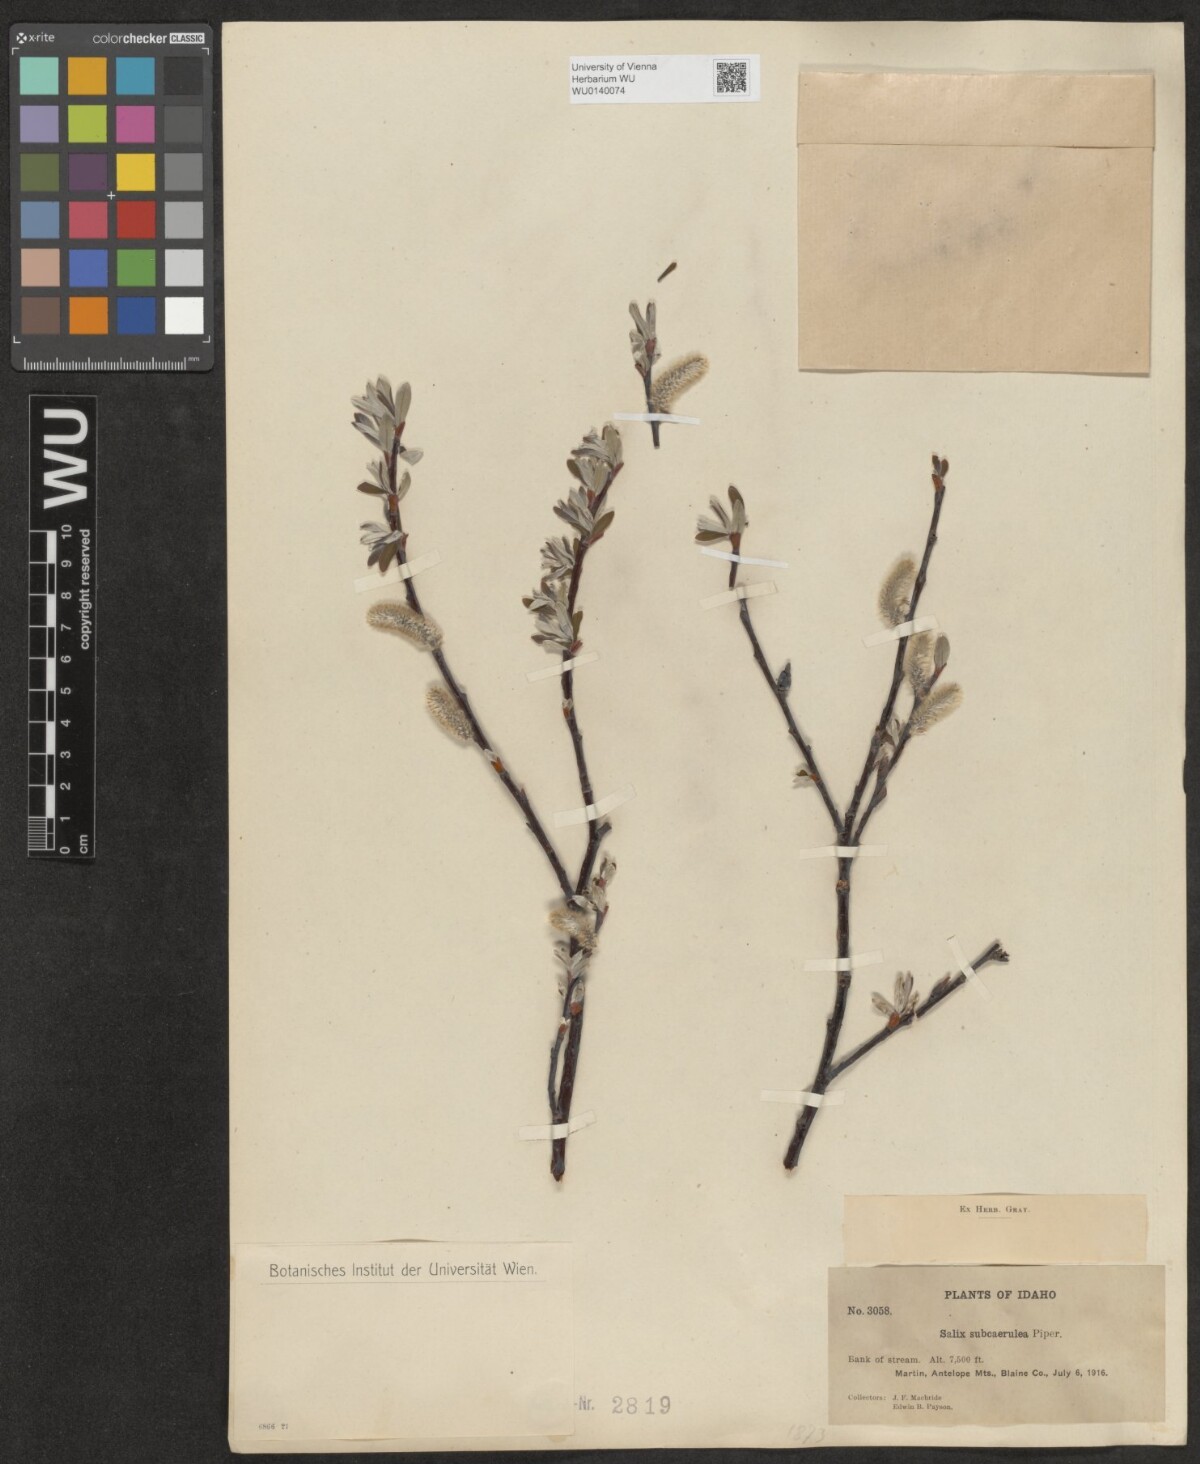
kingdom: Plantae
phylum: Tracheophyta
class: Magnoliopsida
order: Malpighiales
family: Salicaceae
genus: Salix
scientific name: Salix drummondiana
